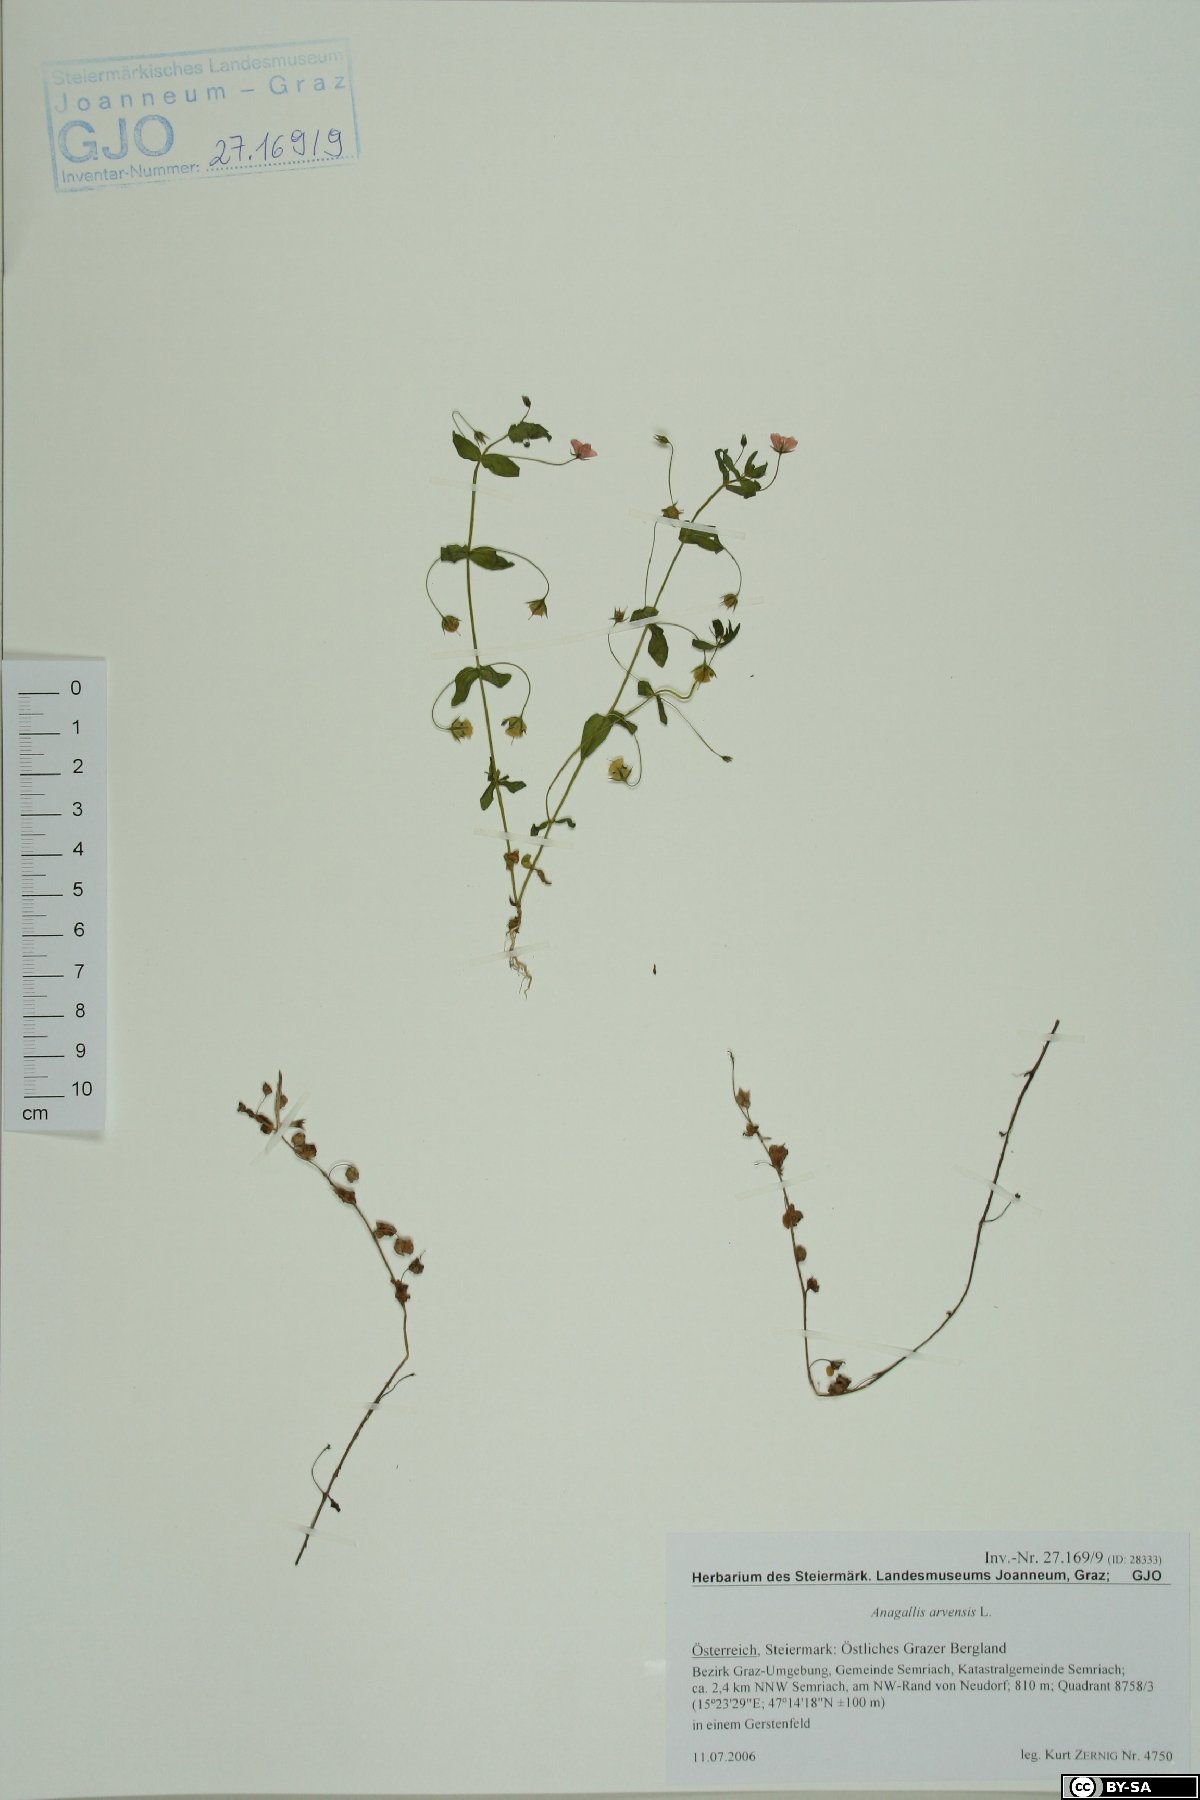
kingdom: Plantae
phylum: Tracheophyta
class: Magnoliopsida
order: Ericales
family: Primulaceae
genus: Lysimachia
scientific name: Lysimachia arvensis
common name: Scarlet pimpernel
